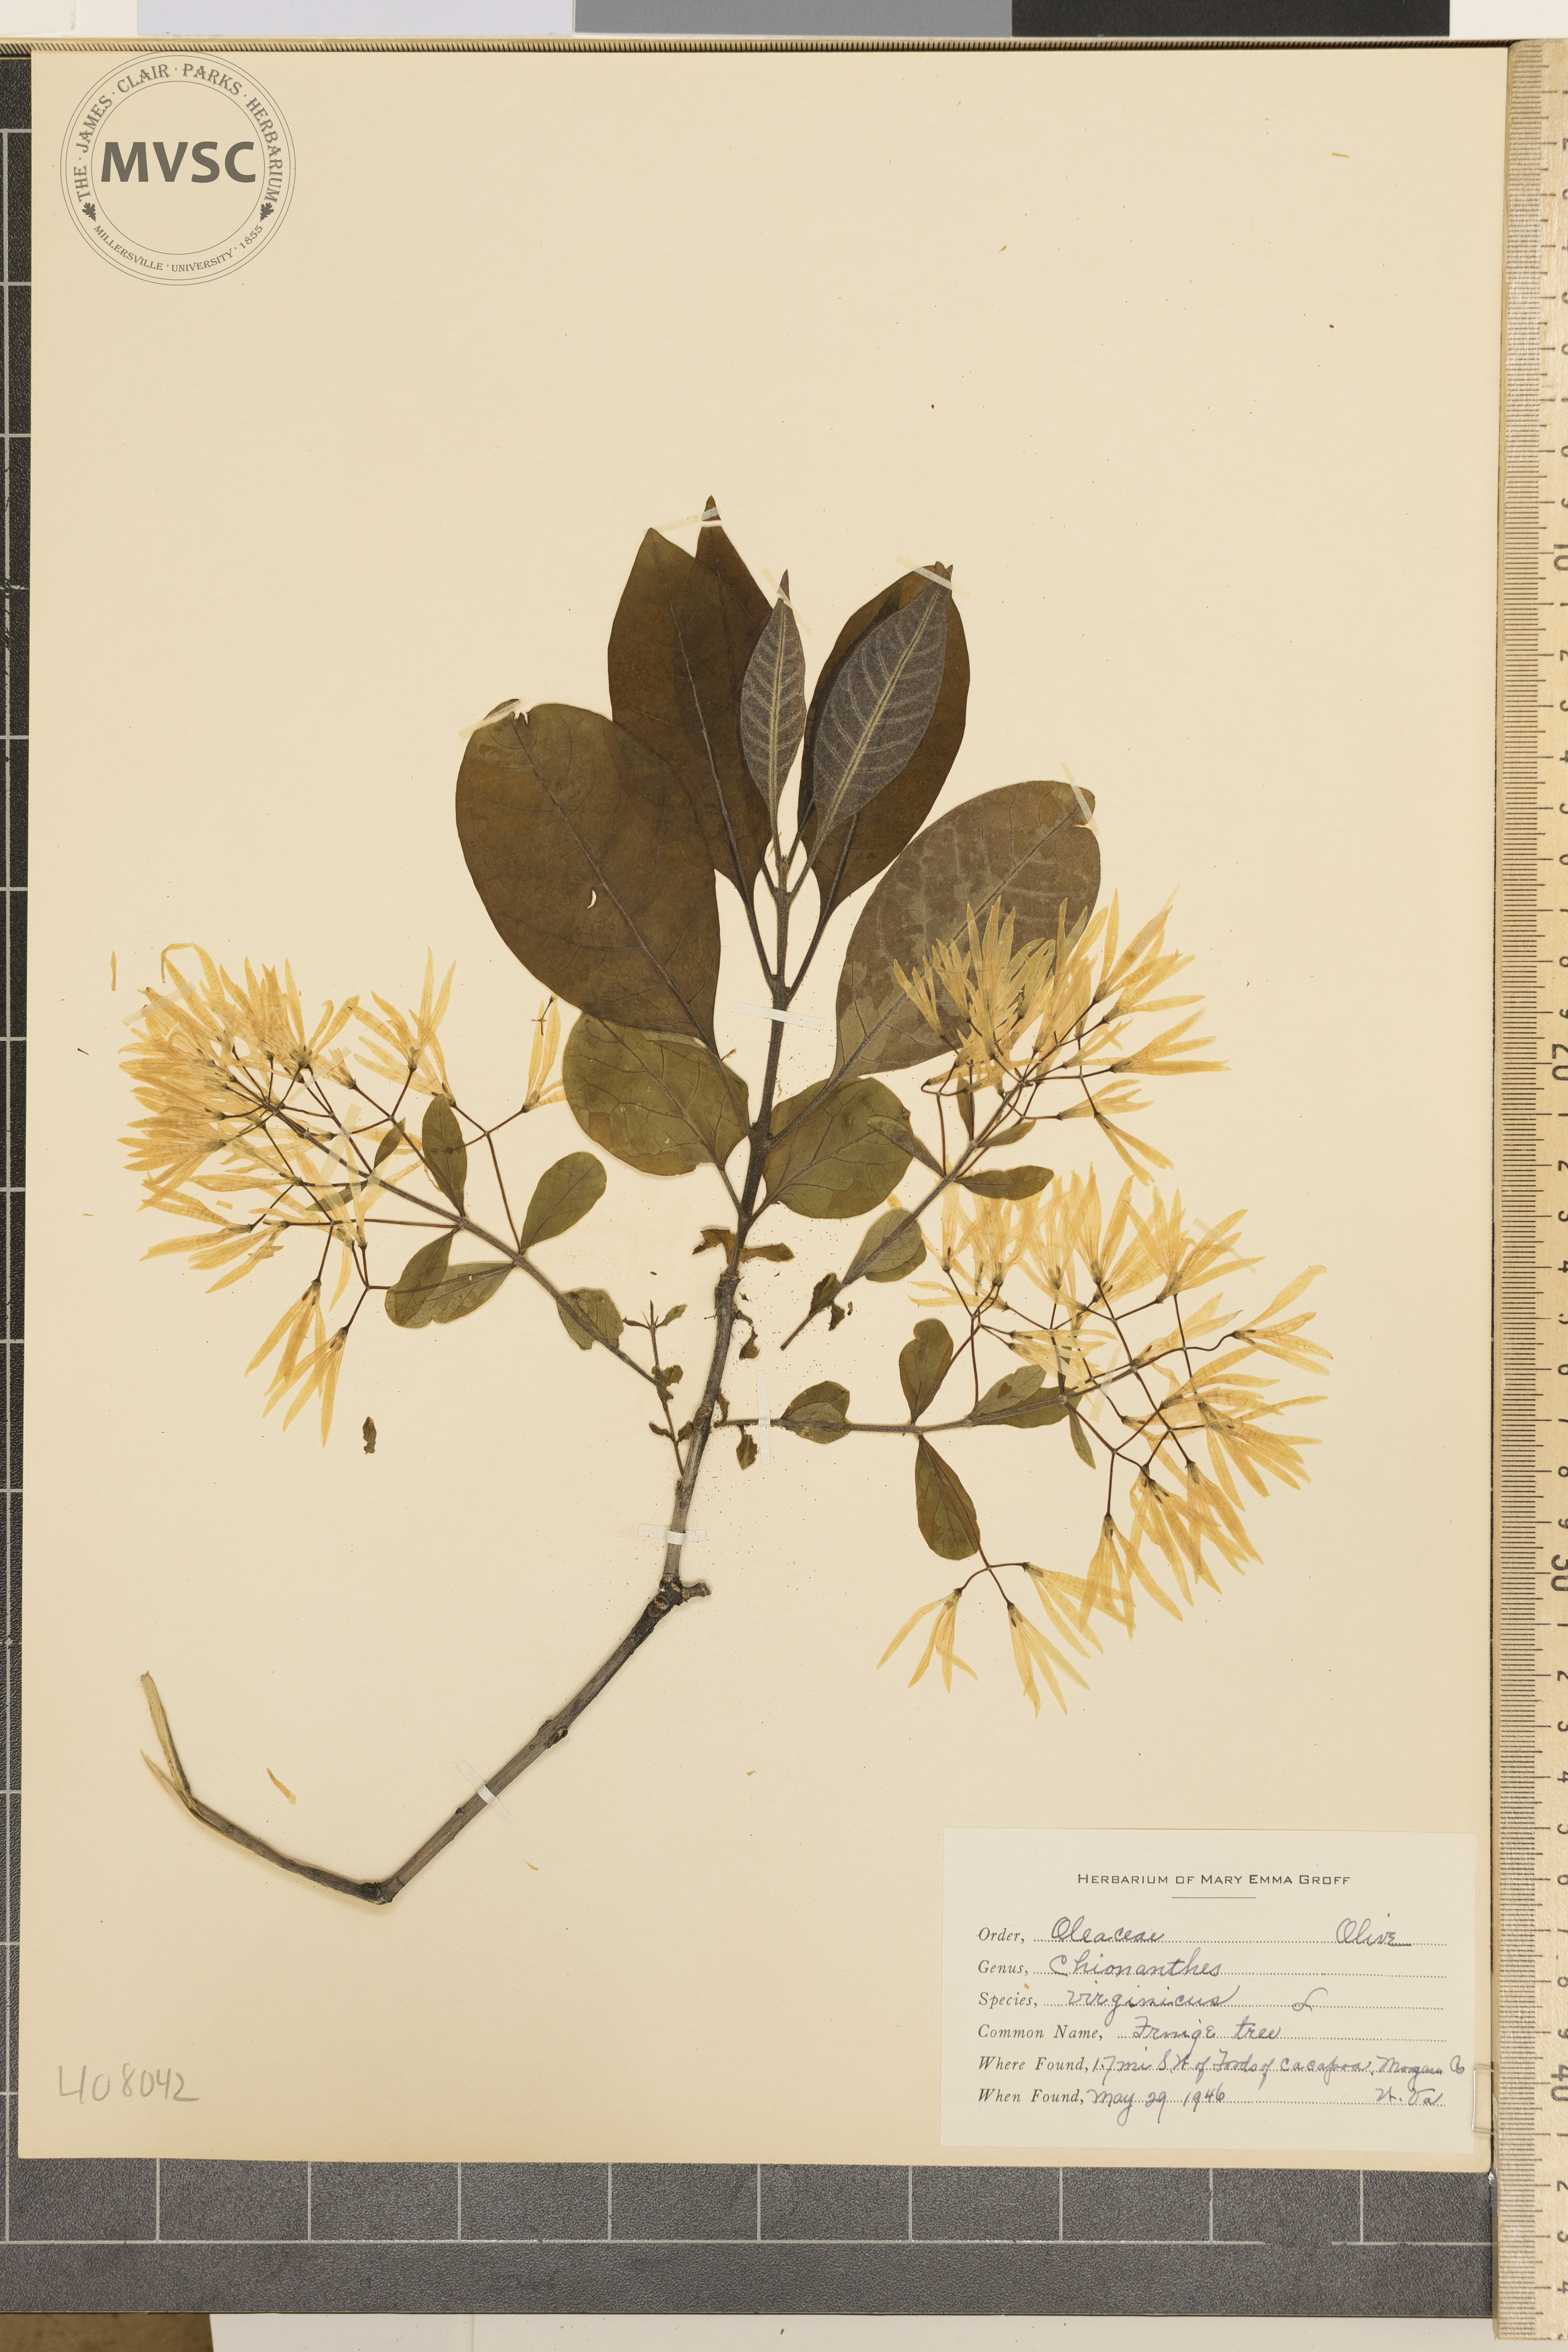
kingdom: Plantae
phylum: Tracheophyta
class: Magnoliopsida
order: Lamiales
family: Oleaceae
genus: Chionanthus
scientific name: Chionanthus virginicus
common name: Fringe Tree
